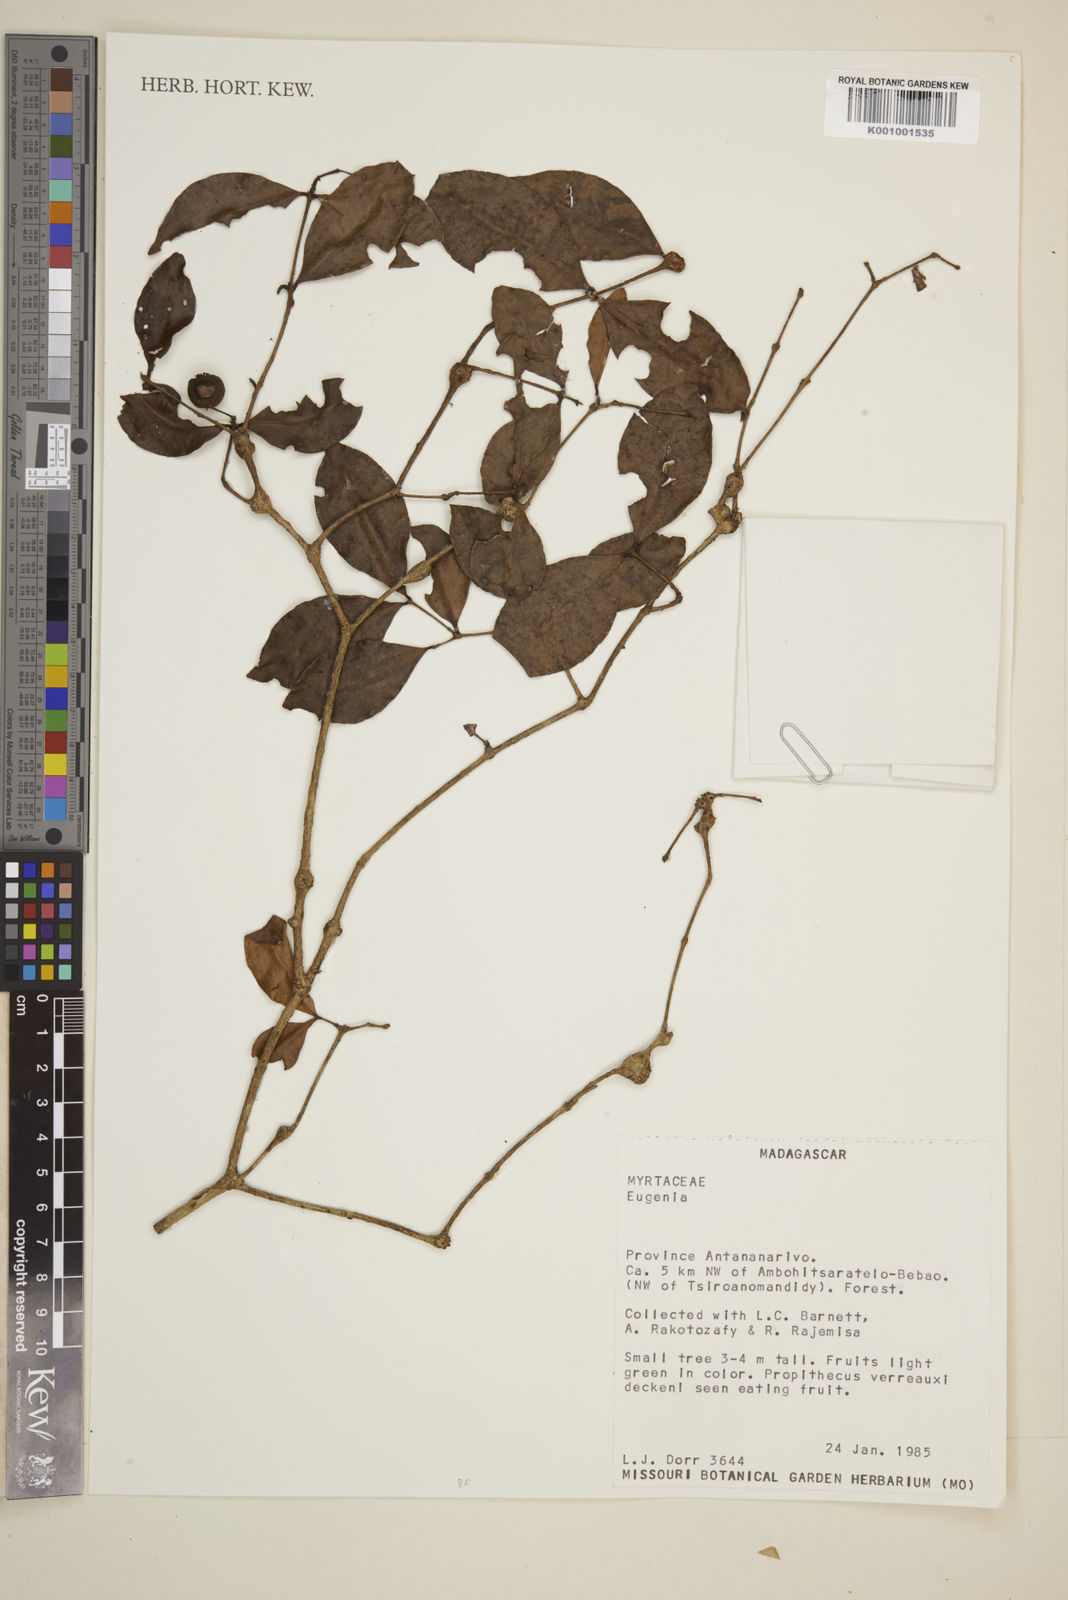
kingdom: Plantae
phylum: Tracheophyta
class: Magnoliopsida
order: Myrtales
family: Myrtaceae
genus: Eugenia
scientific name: Eugenia
